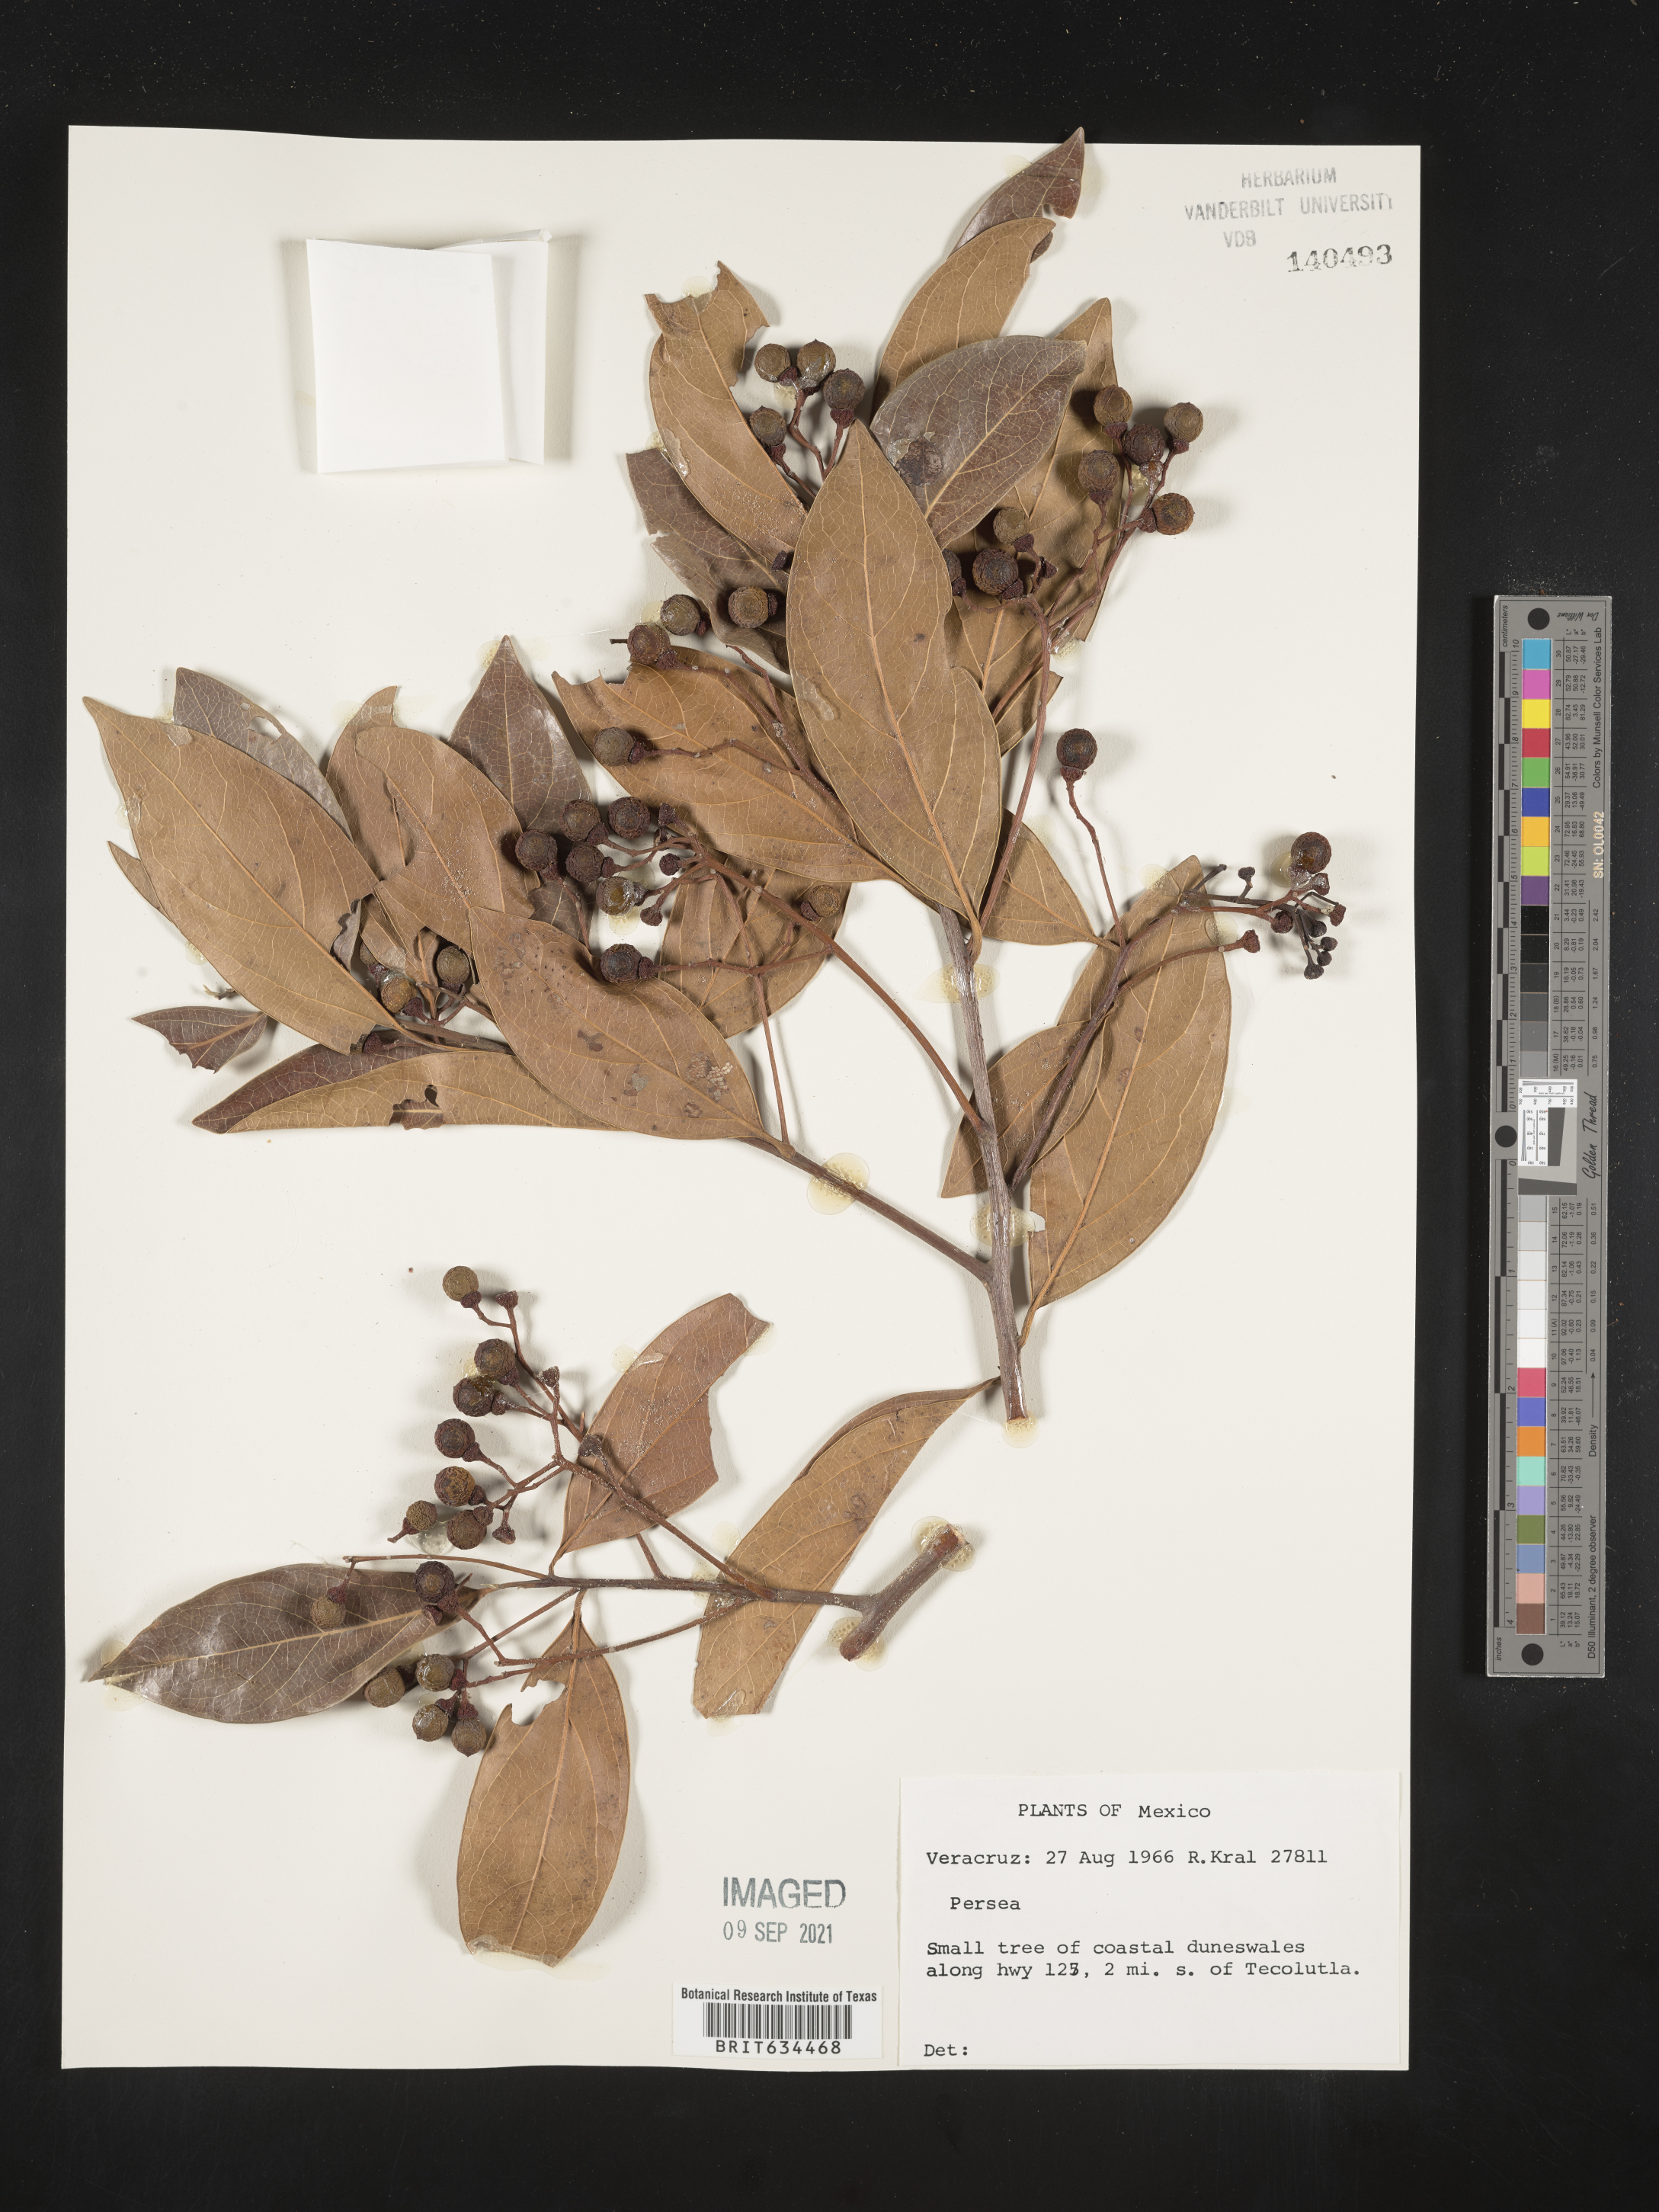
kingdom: Plantae
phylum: Tracheophyta
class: Magnoliopsida
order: Laurales
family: Lauraceae
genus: Phoebe
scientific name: Phoebe
